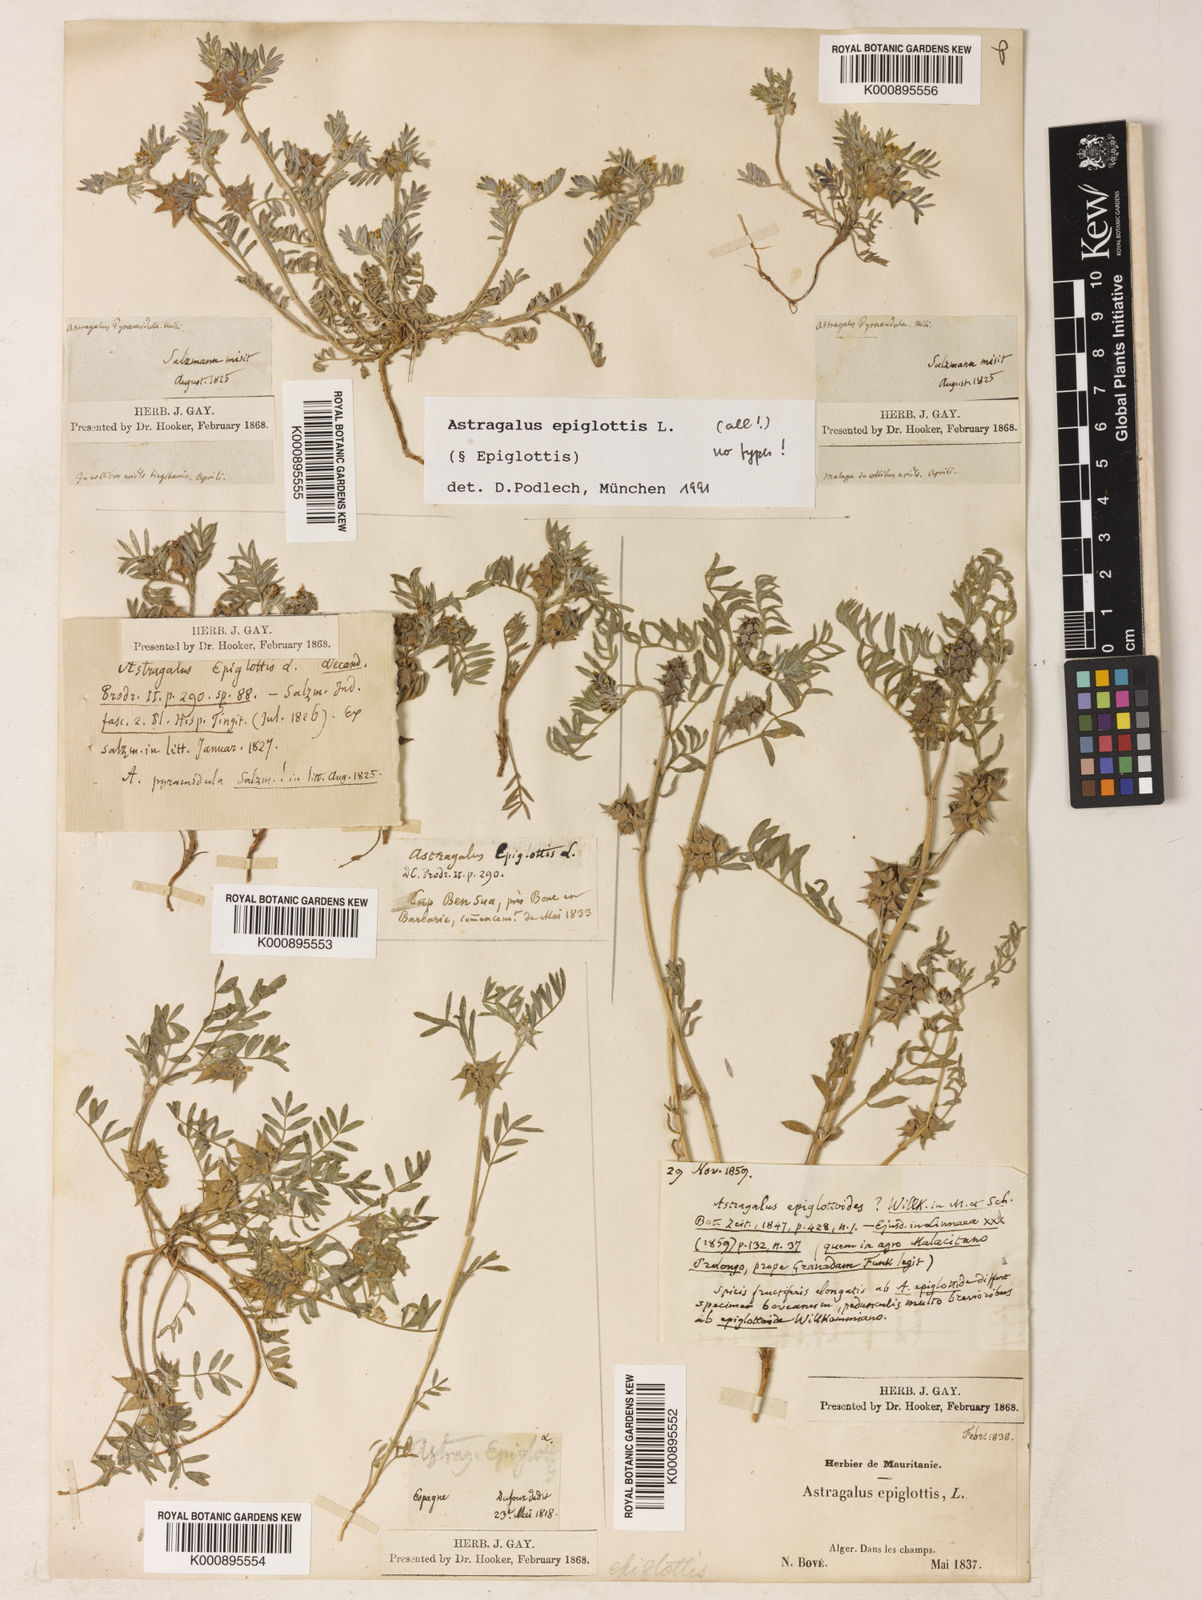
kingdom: Plantae
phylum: Tracheophyta
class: Magnoliopsida
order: Fabales
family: Fabaceae
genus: Biserrula
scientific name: Biserrula epiglottis
